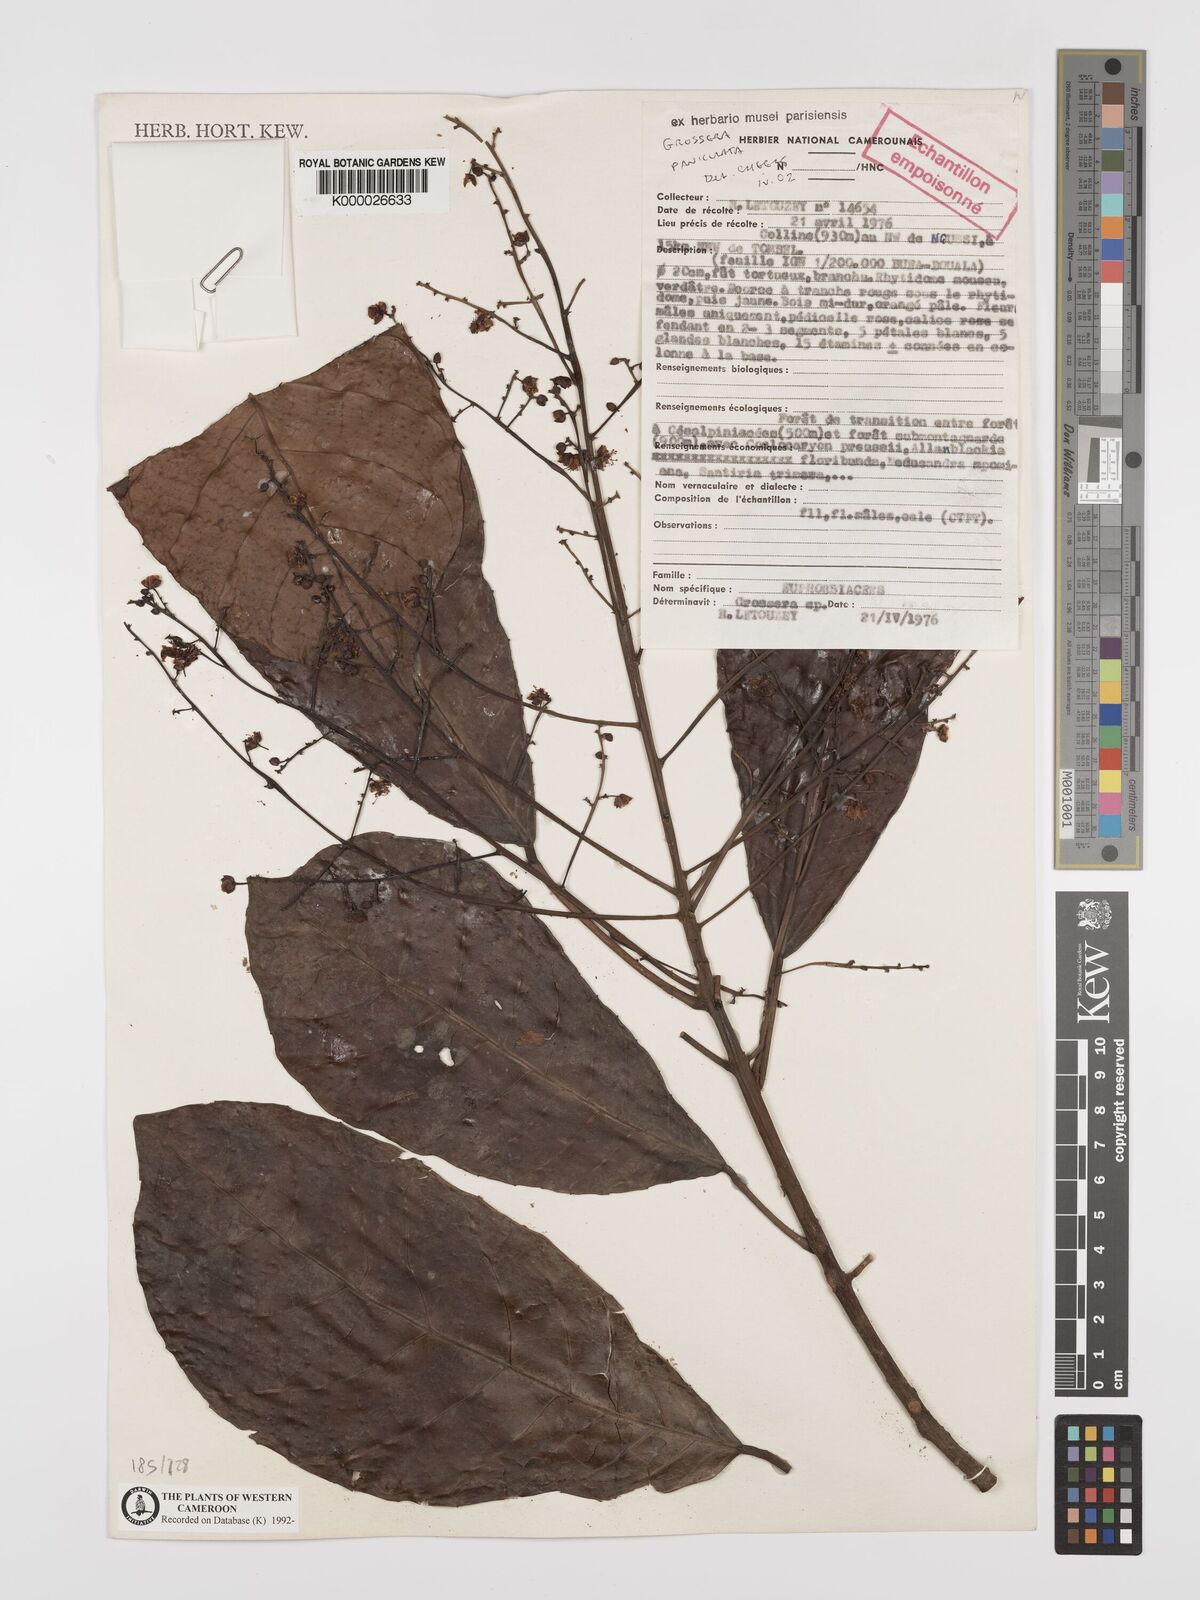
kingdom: Plantae
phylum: Tracheophyta
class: Magnoliopsida
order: Malpighiales
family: Euphorbiaceae
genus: Grossera
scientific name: Grossera paniculata
